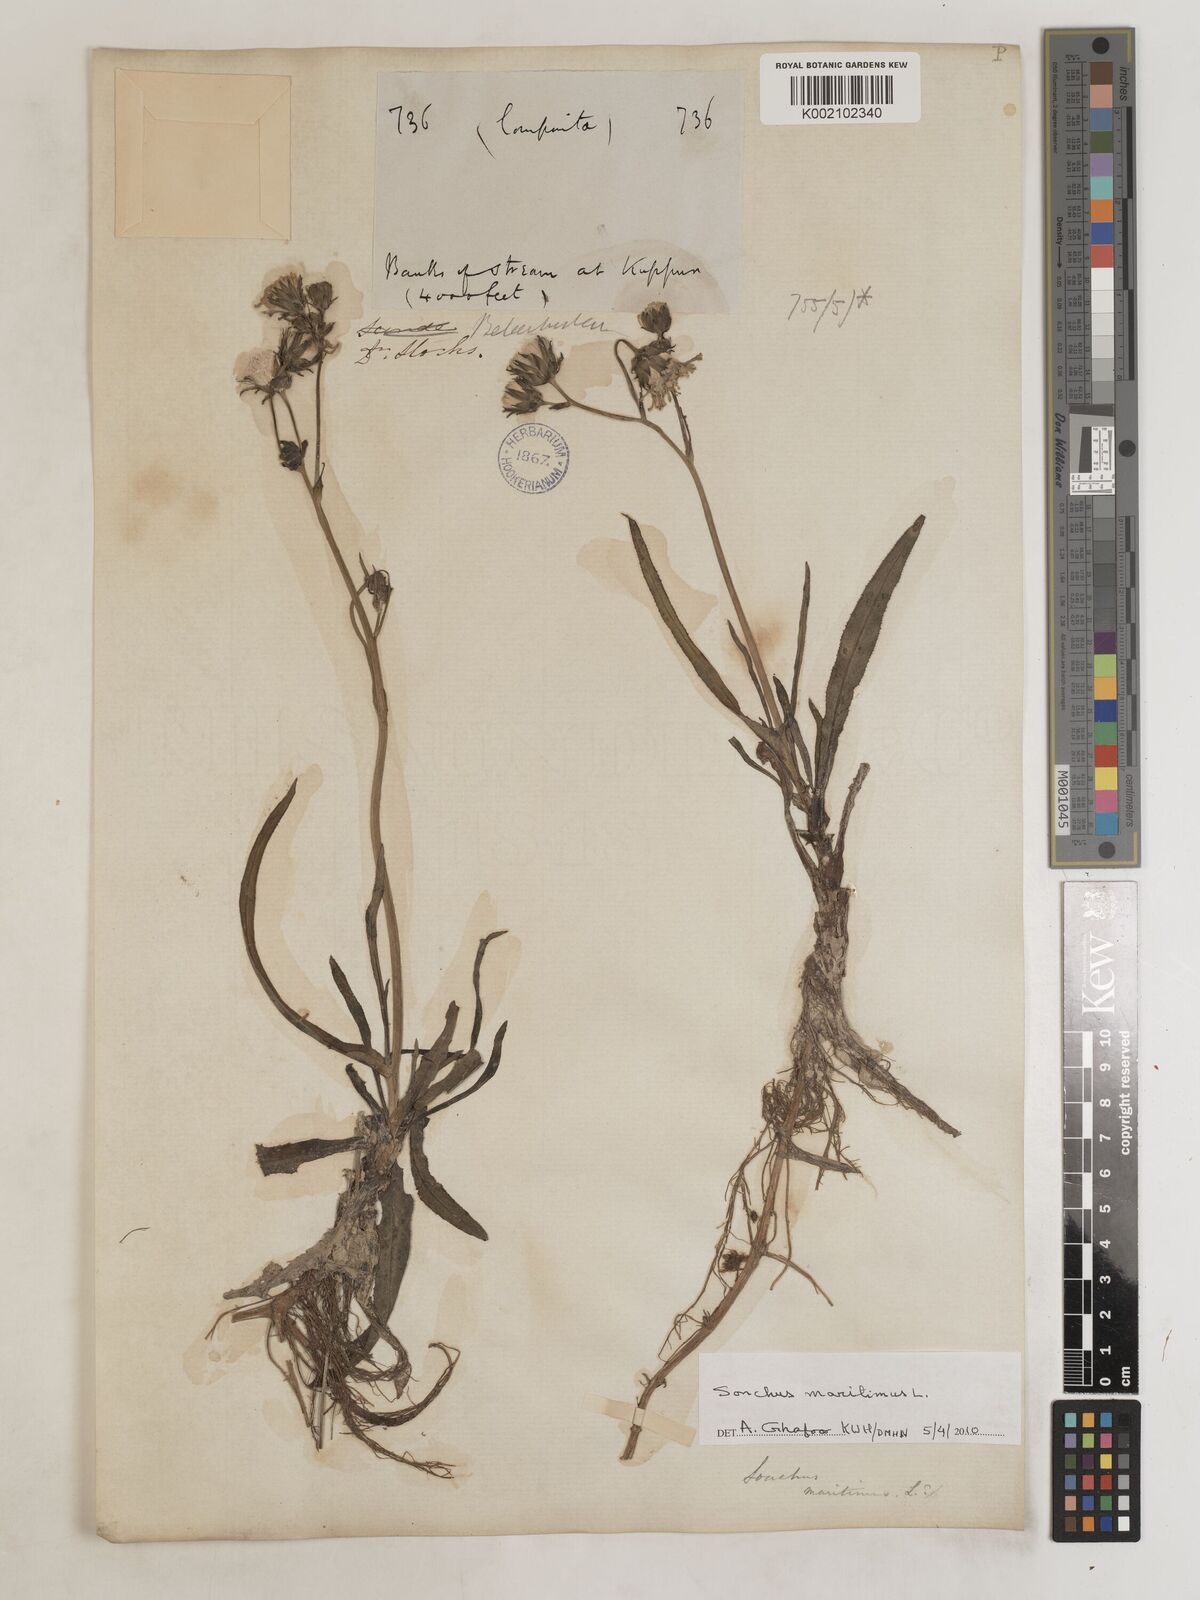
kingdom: Plantae
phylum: Tracheophyta
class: Magnoliopsida
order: Asterales
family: Asteraceae
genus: Sonchus
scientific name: Sonchus maritimus
